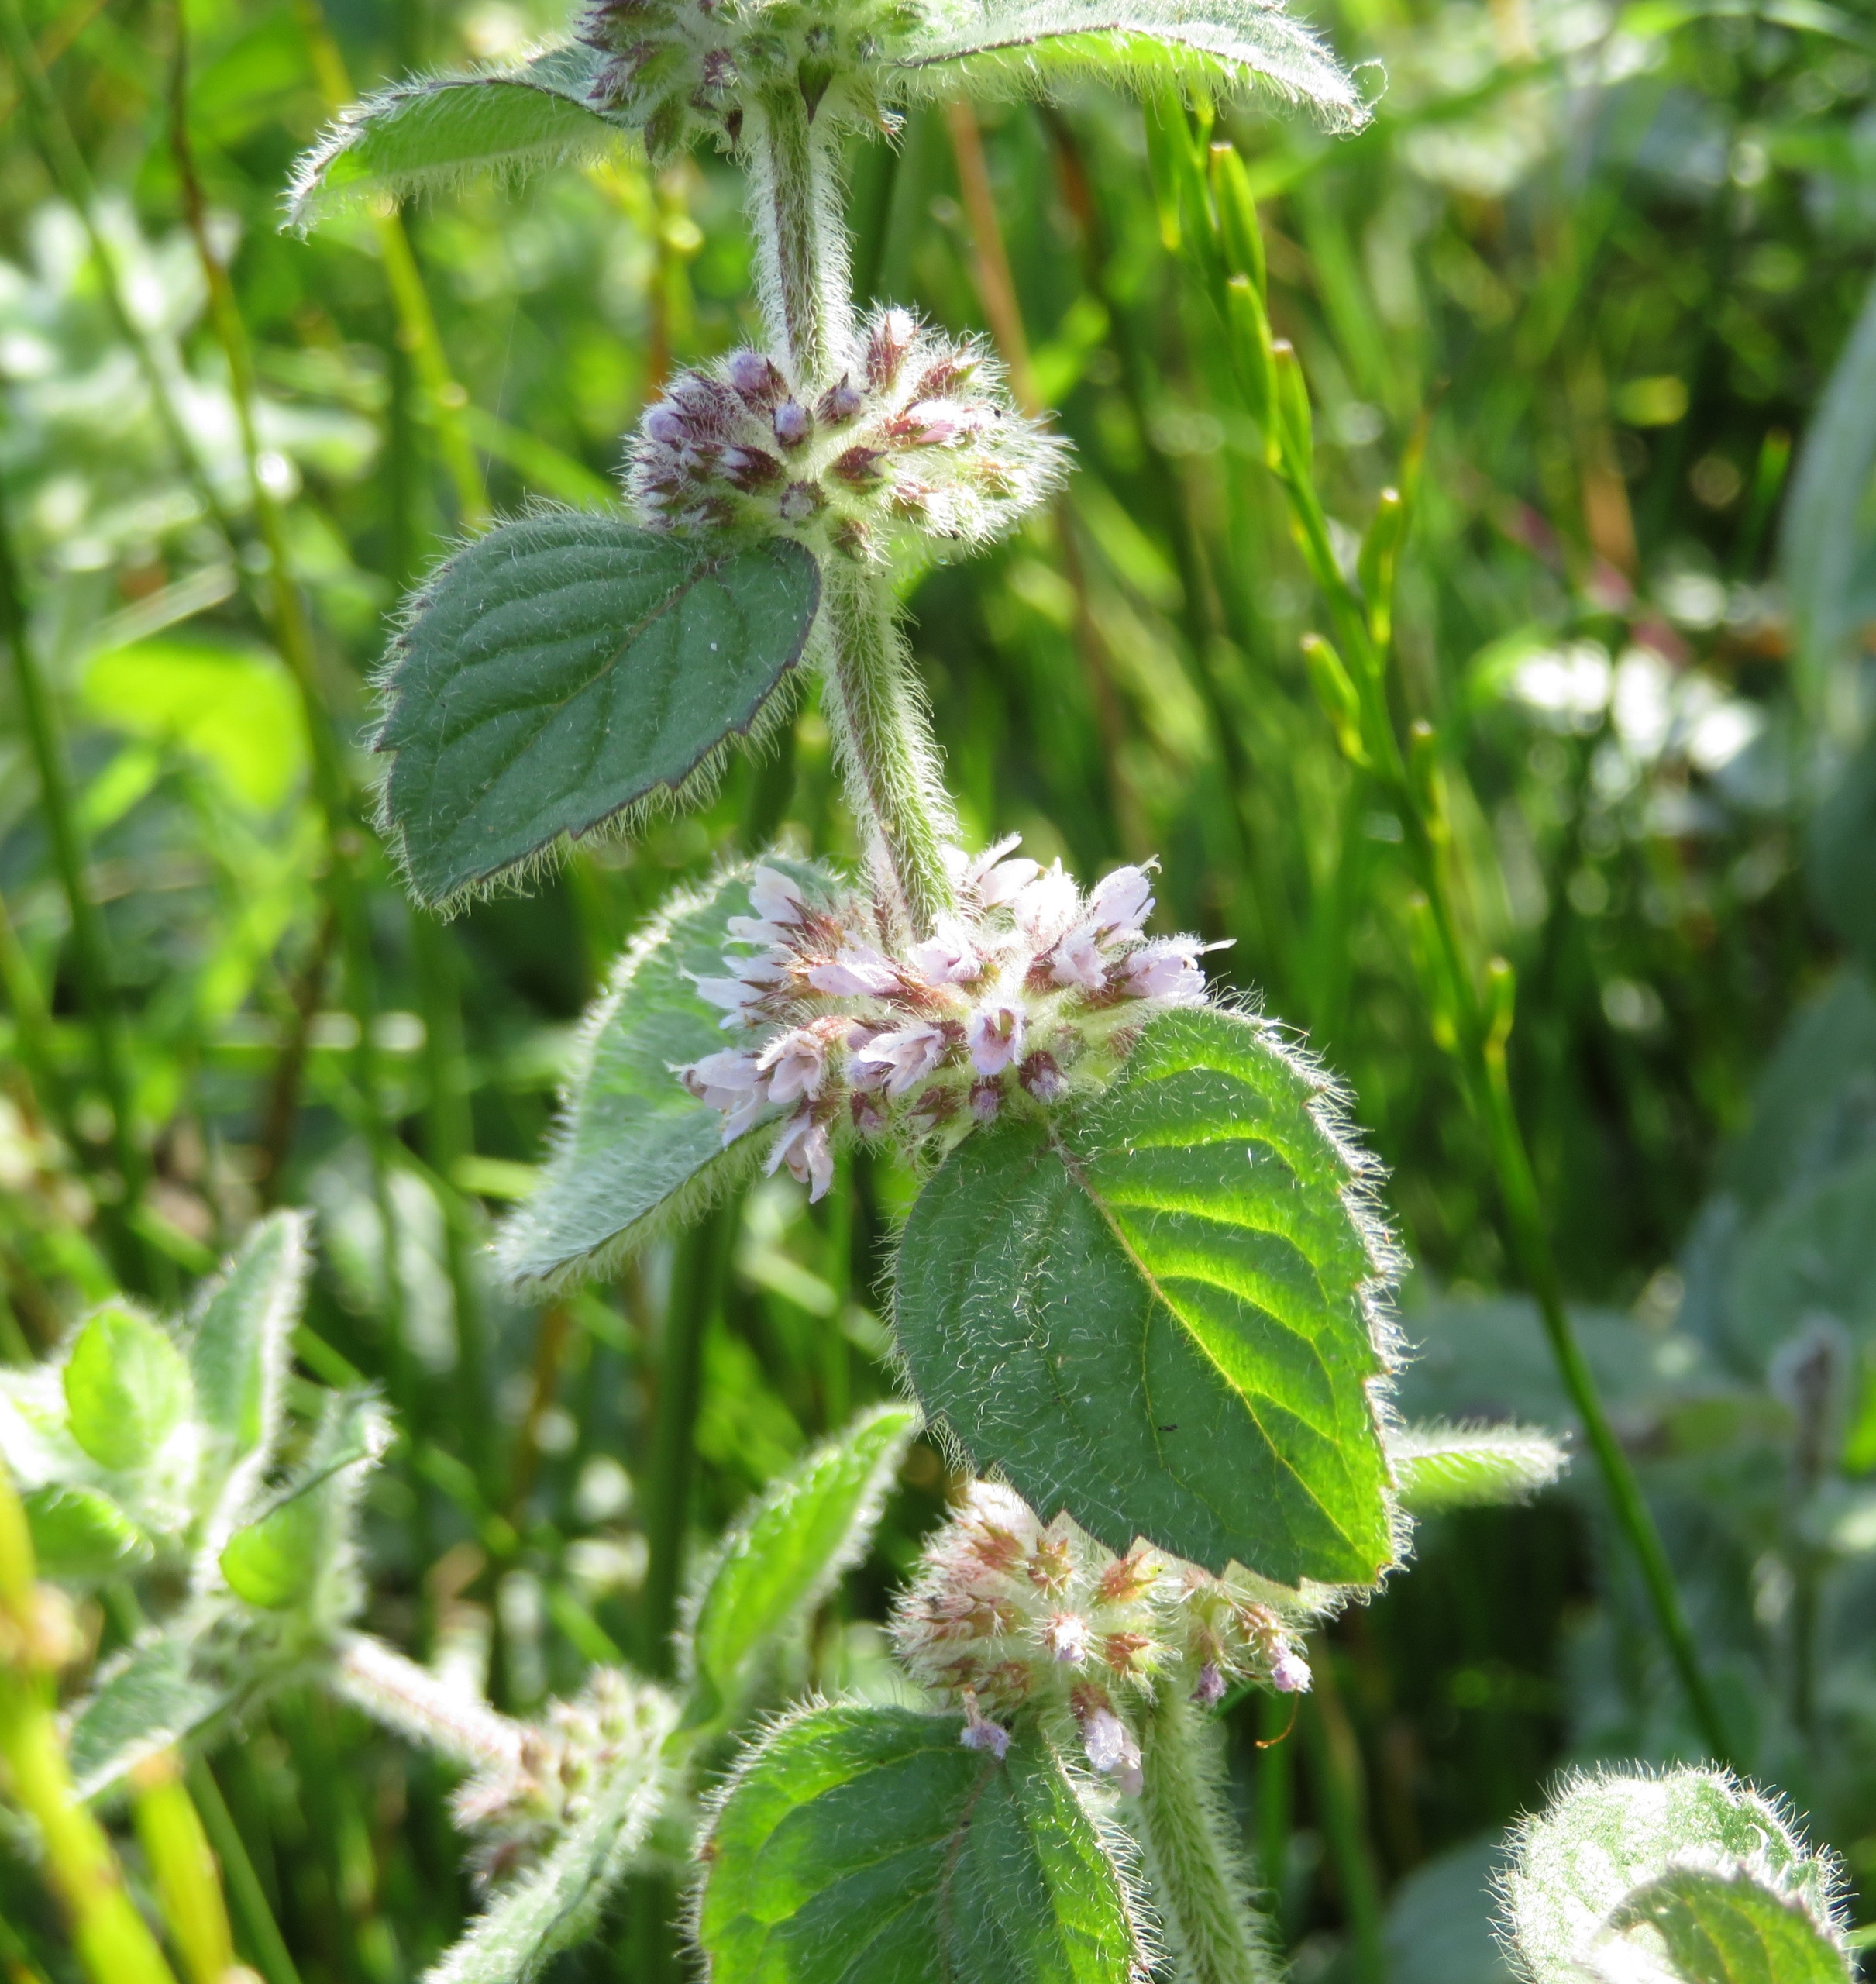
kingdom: Plantae
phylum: Tracheophyta
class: Magnoliopsida
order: Lamiales
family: Lamiaceae
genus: Mentha
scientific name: Mentha verticillata
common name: Krans-mynte
